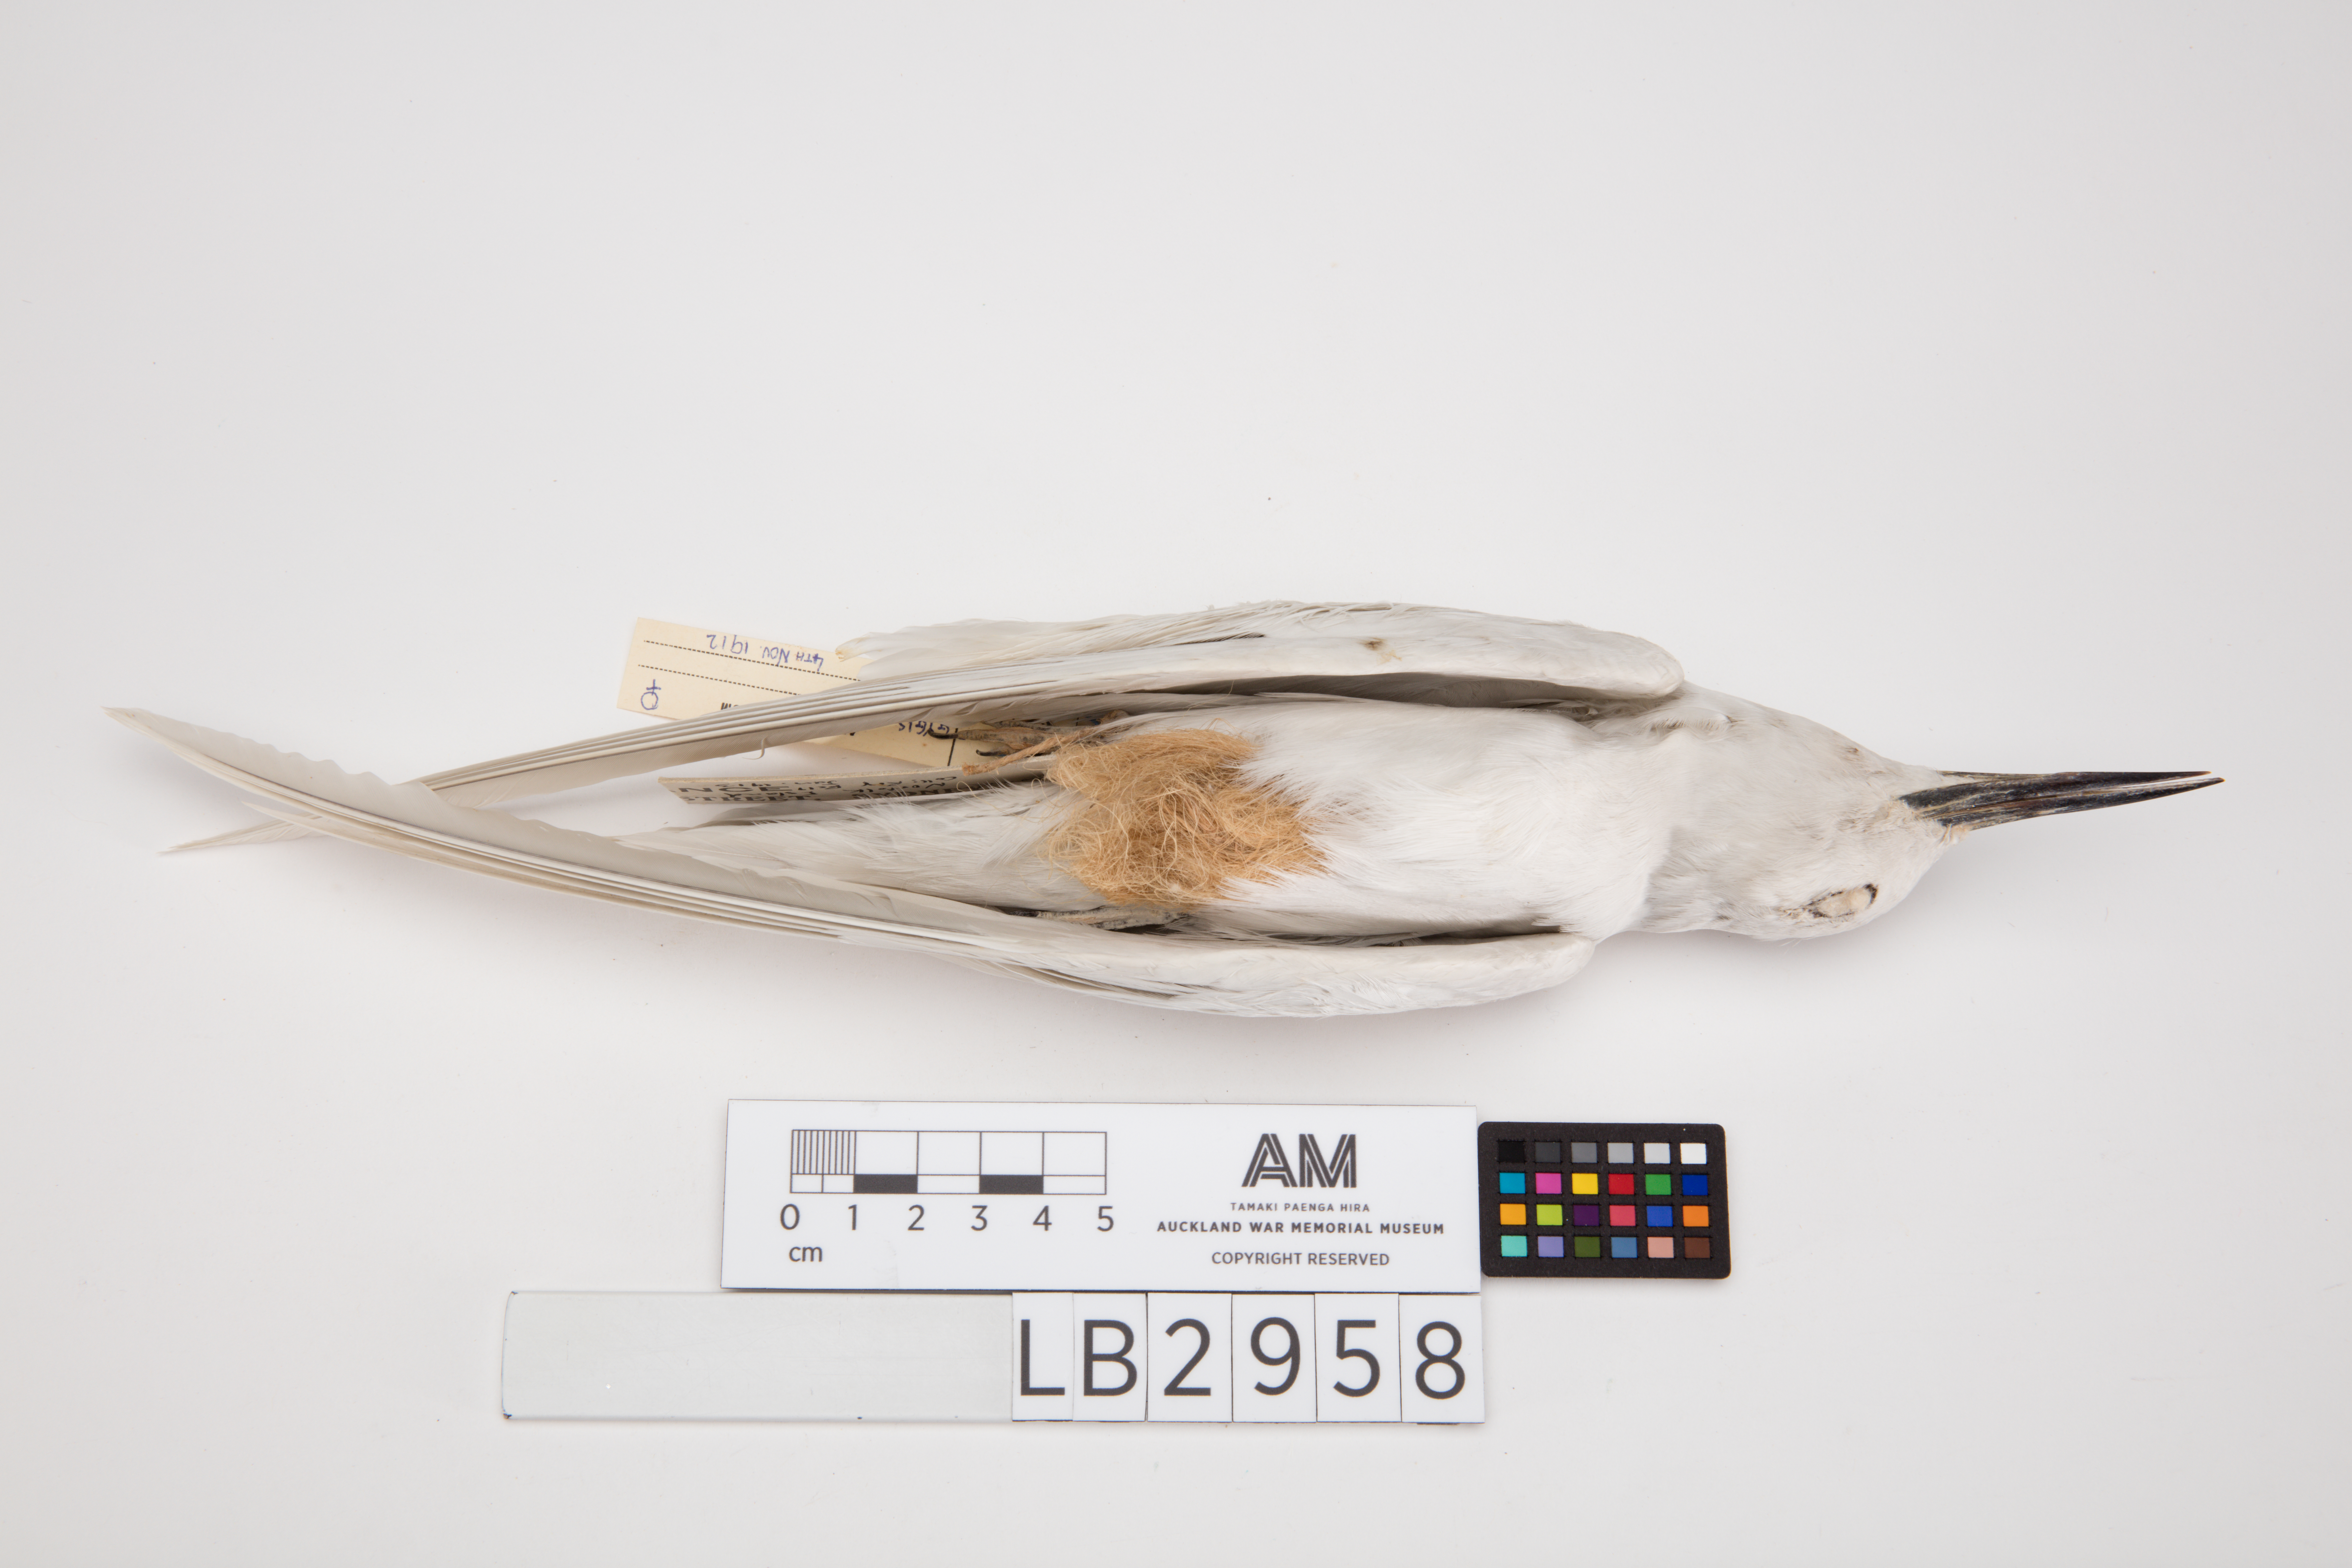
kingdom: Animalia
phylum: Chordata
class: Aves
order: Charadriiformes
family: Laridae
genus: Gygis
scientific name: Gygis alba
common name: White tern
